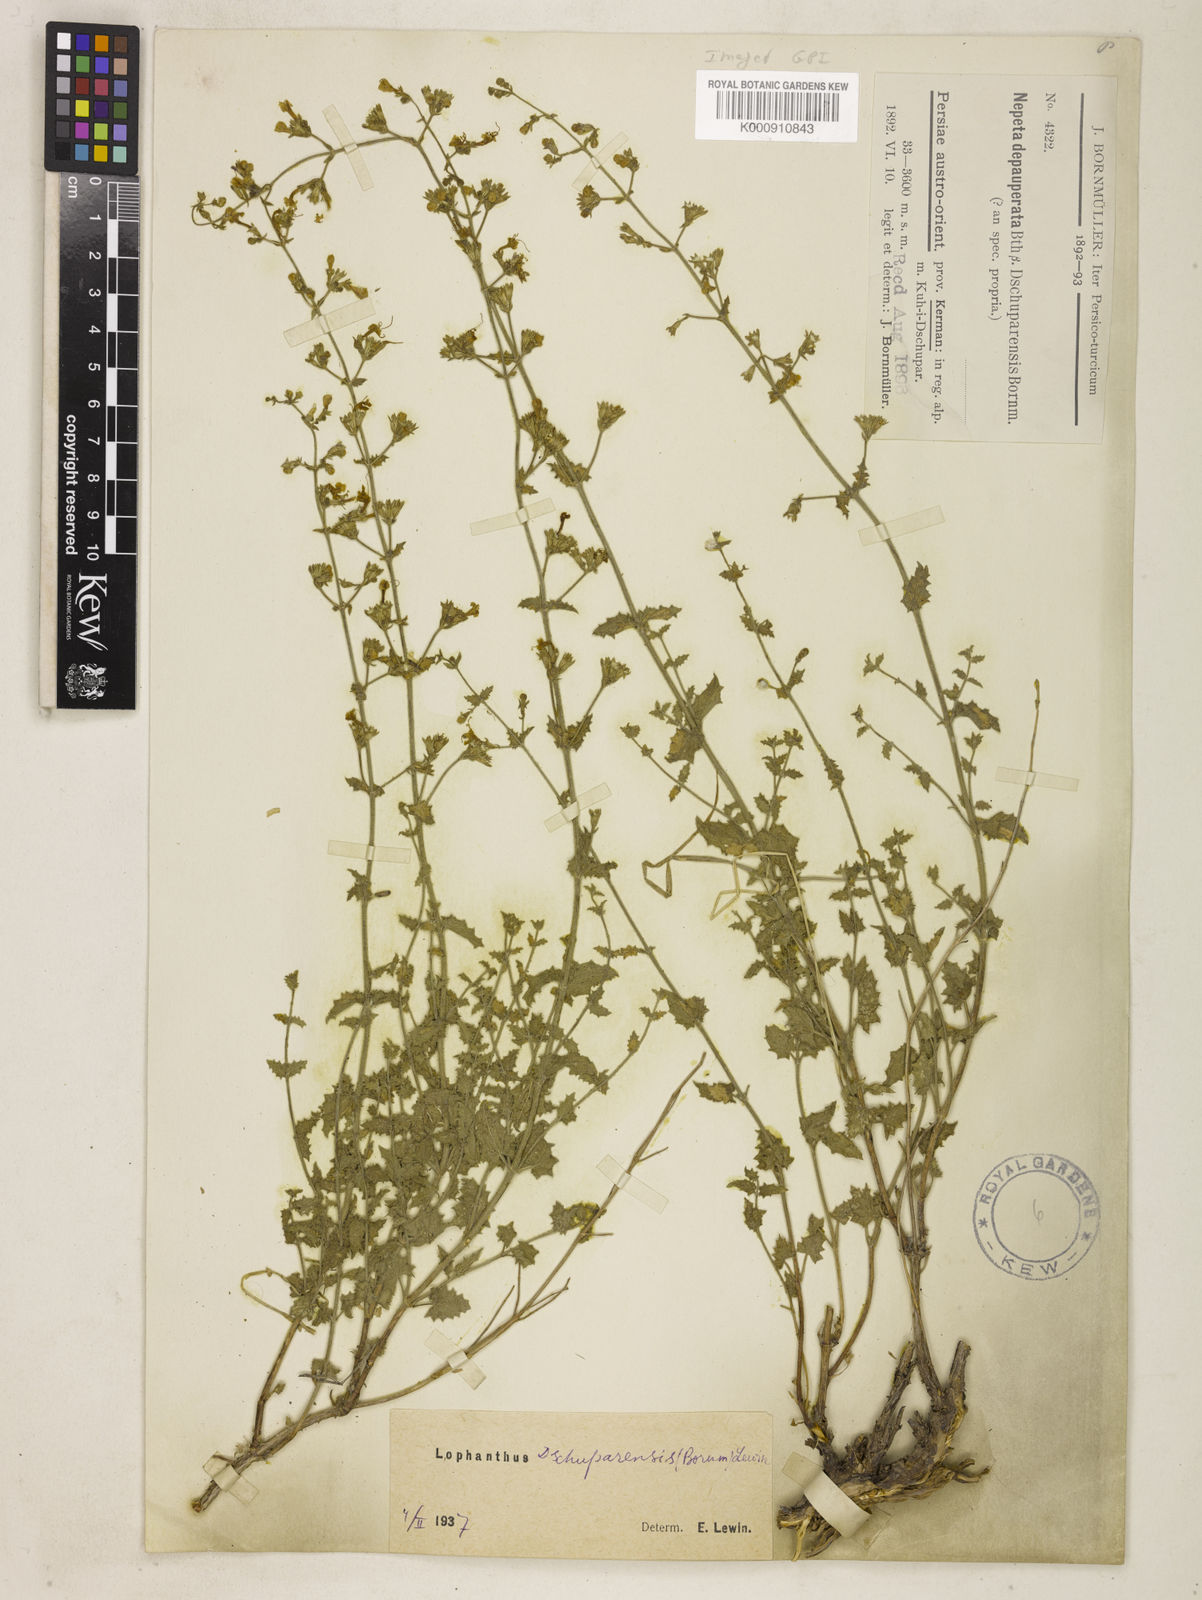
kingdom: Plantae
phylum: Tracheophyta
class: Magnoliopsida
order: Lamiales
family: Lamiaceae
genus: Nepeta
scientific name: Nepeta dschuparensis
